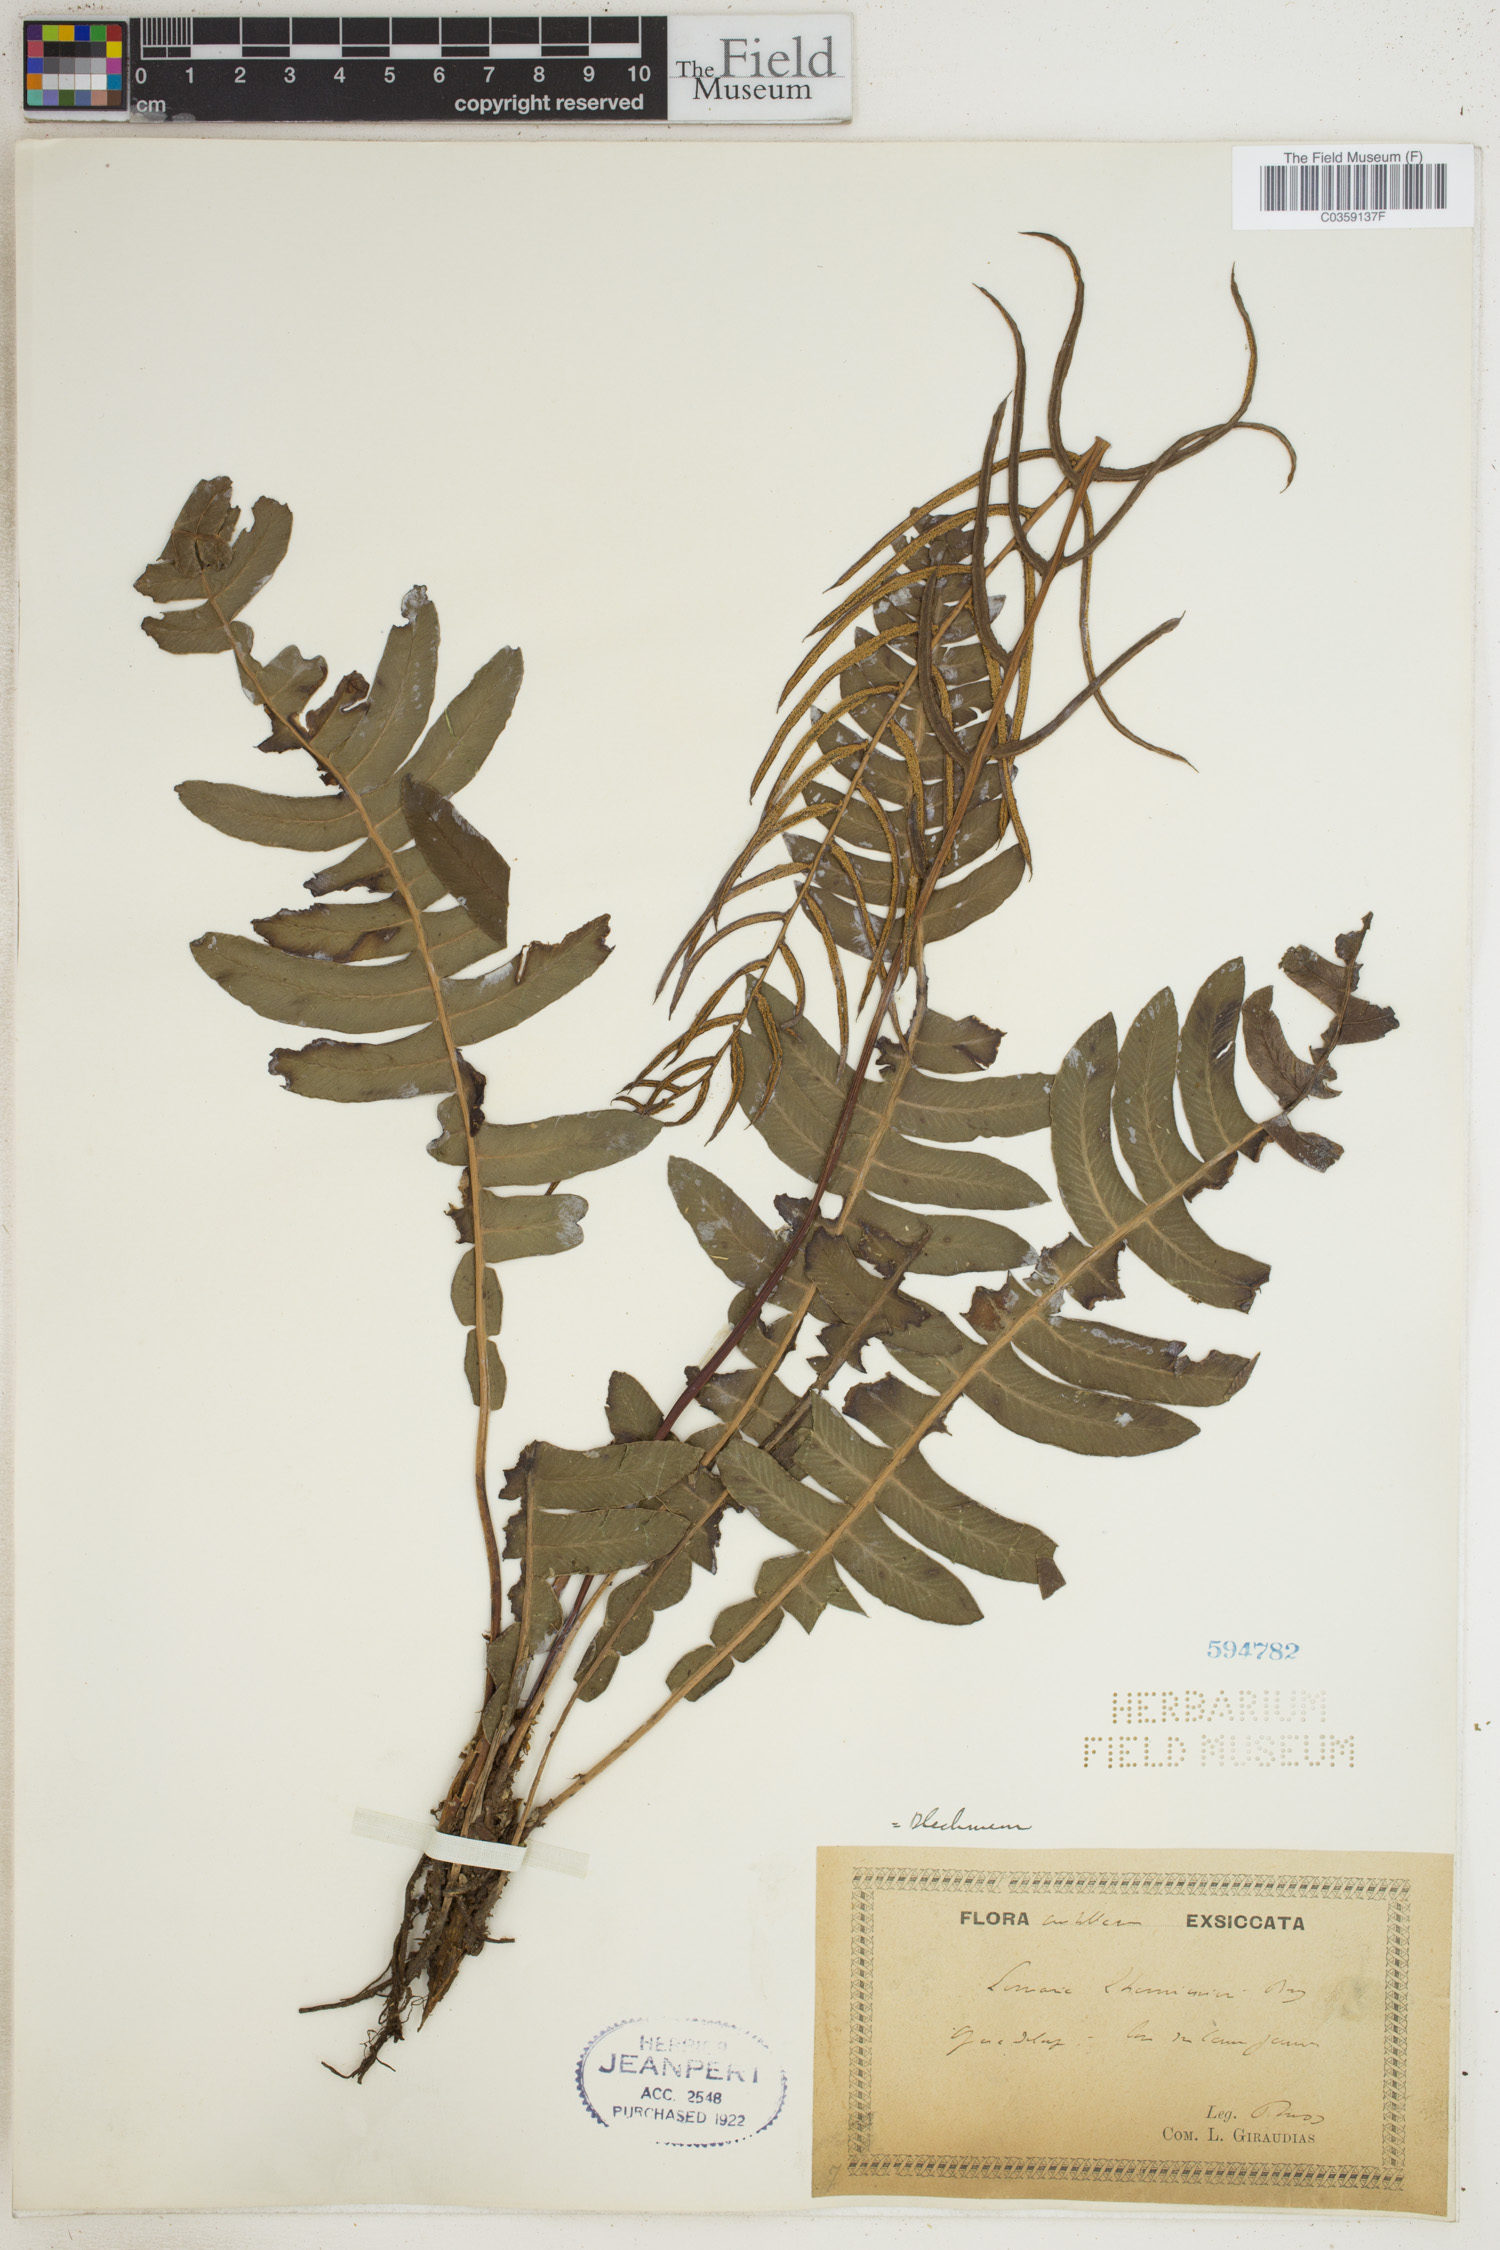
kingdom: Plantae
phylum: Tracheophyta
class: Polypodiopsida
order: Polypodiales
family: Blechnaceae
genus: Austroblechnum
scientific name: Austroblechnum lherminieri
